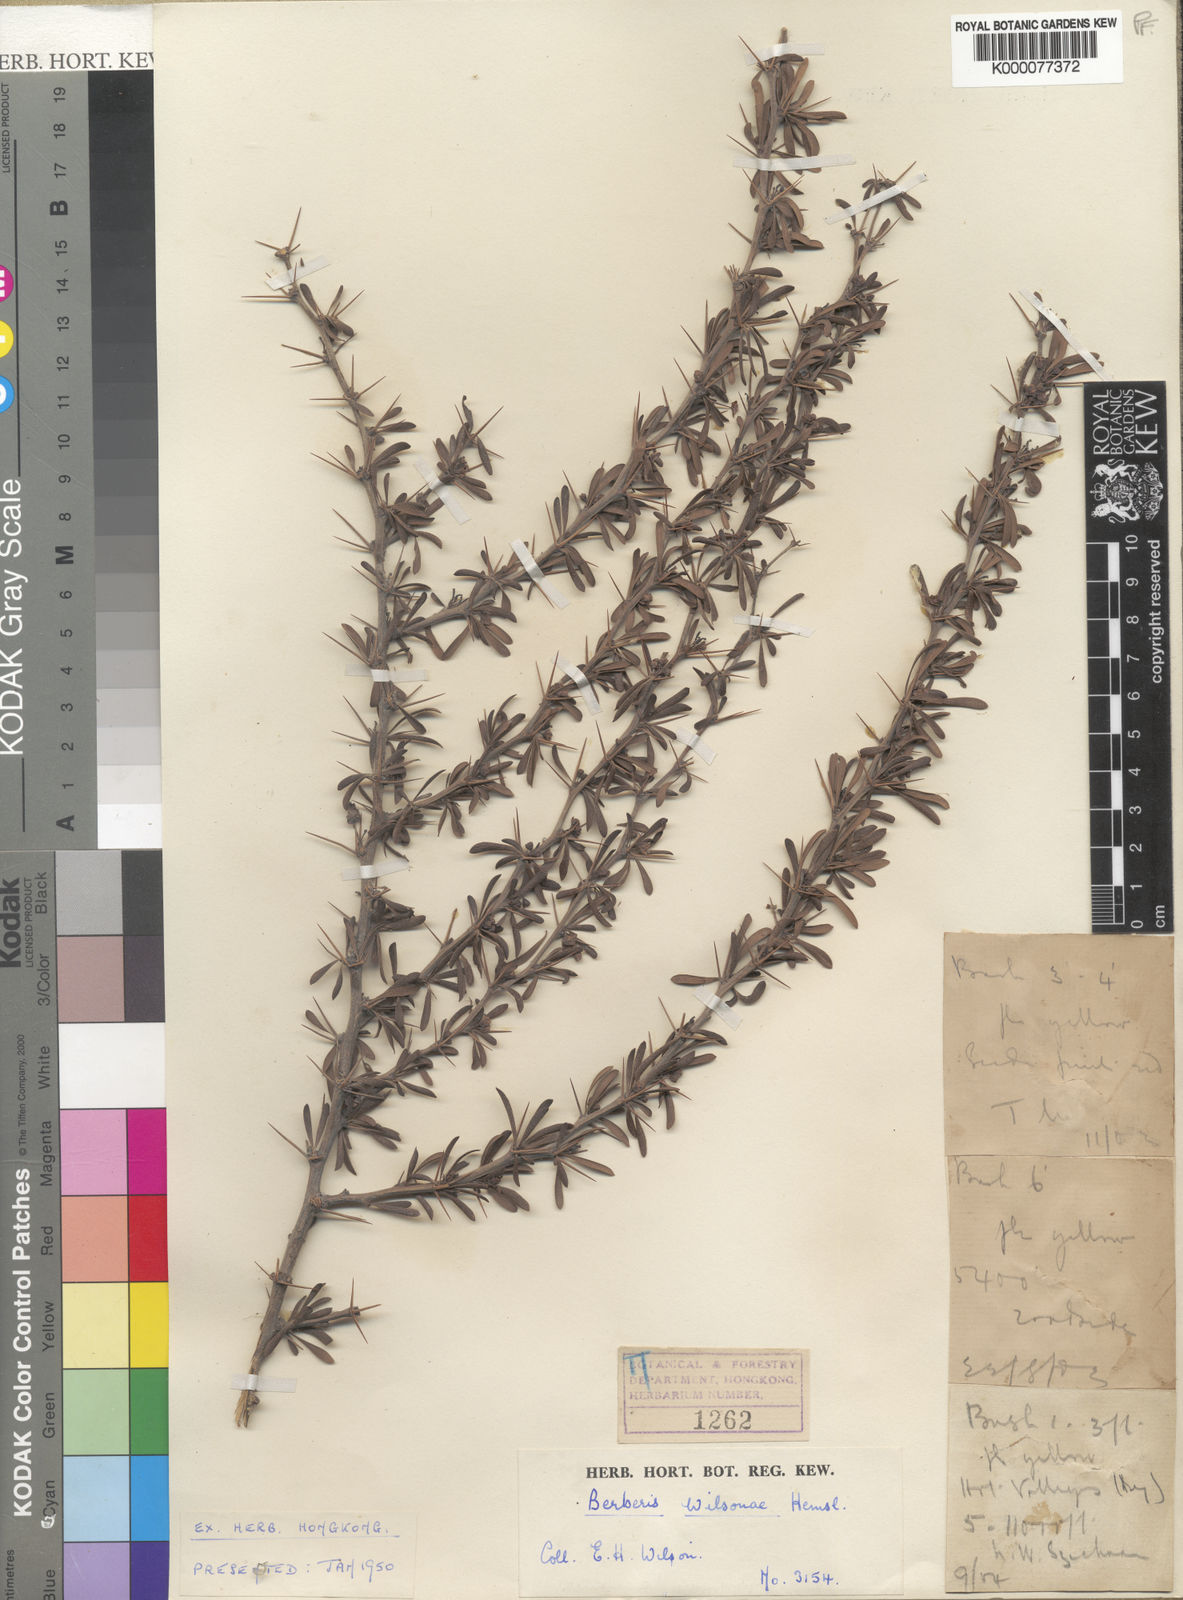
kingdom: Plantae
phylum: Tracheophyta
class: Magnoliopsida
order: Ranunculales
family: Berberidaceae
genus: Berberis
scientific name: Berberis wilsoniae
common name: Mrs wilson's barberry
